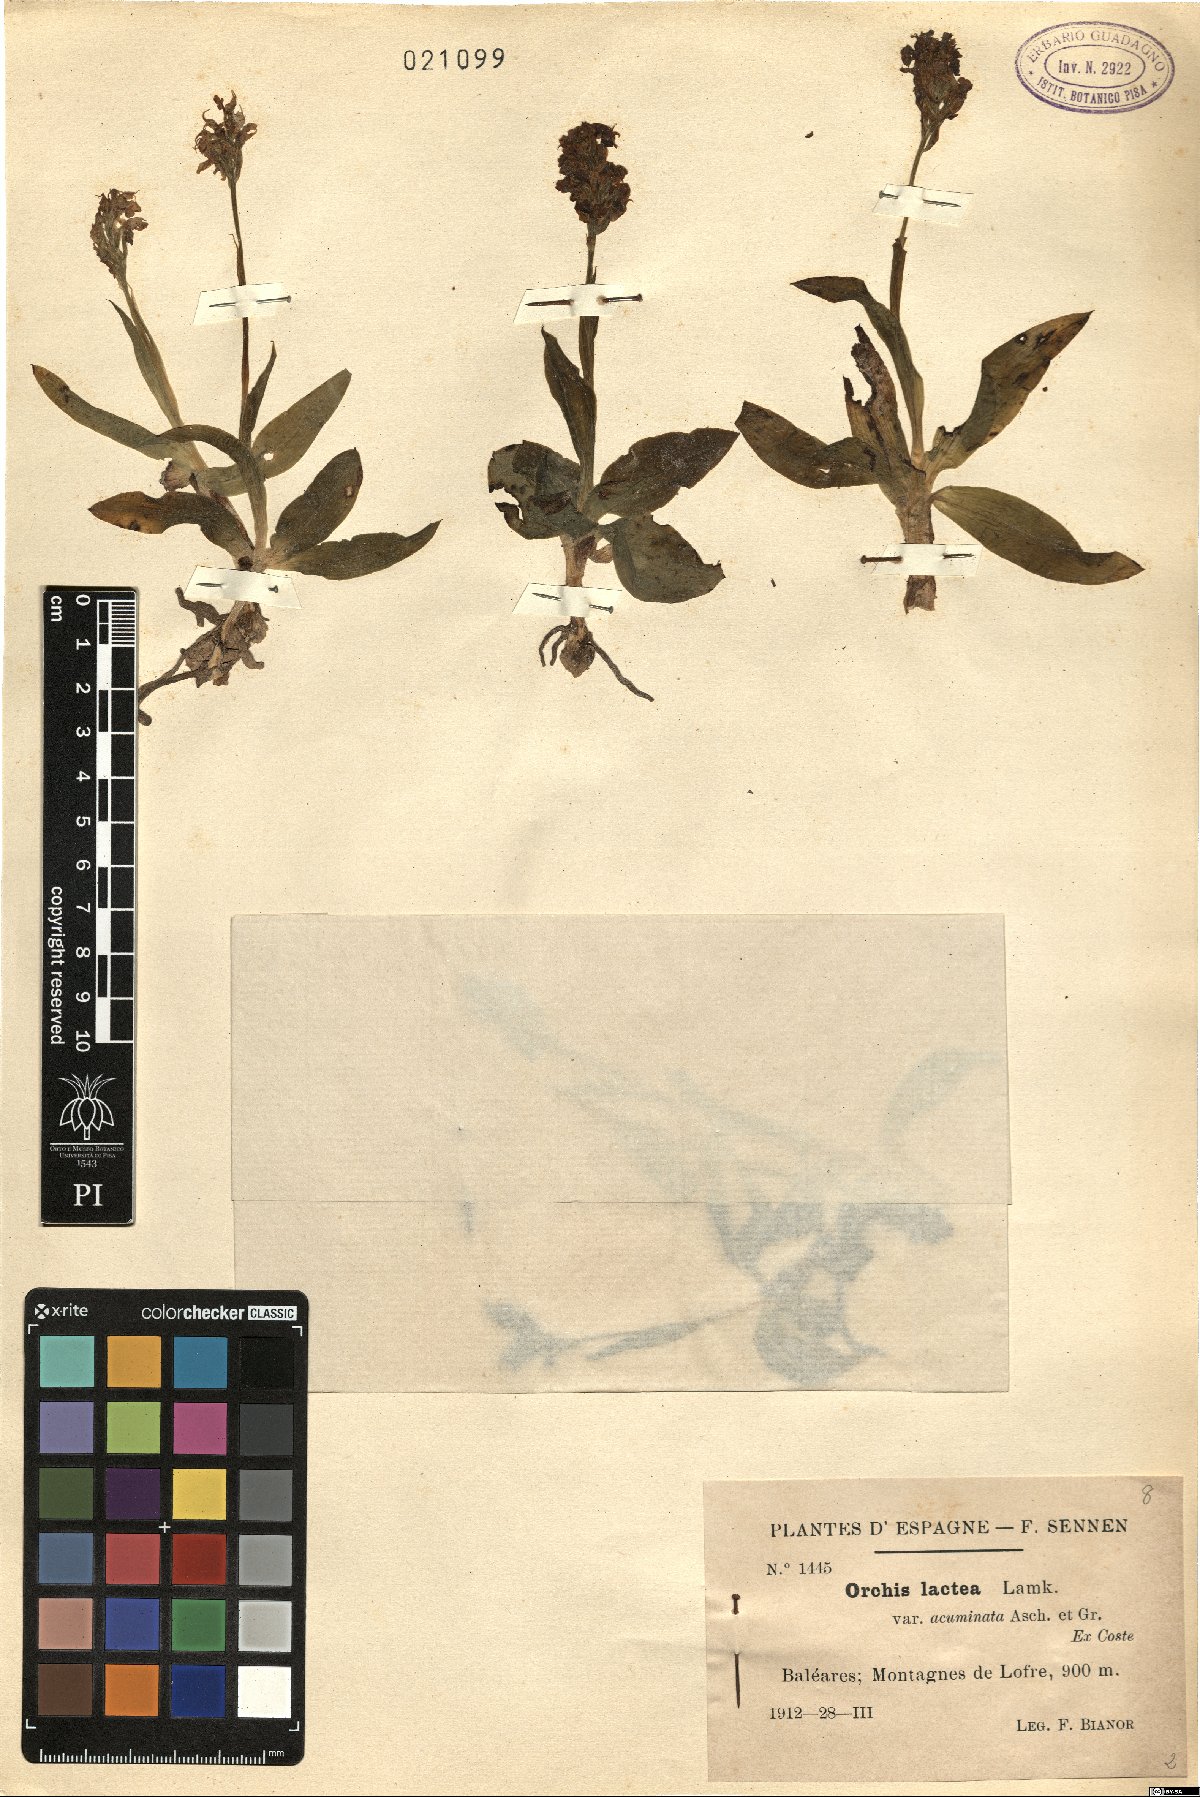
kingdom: Plantae
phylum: Tracheophyta
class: Liliopsida
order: Asparagales
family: Orchidaceae
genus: Neotinea
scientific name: Neotinea lactea
